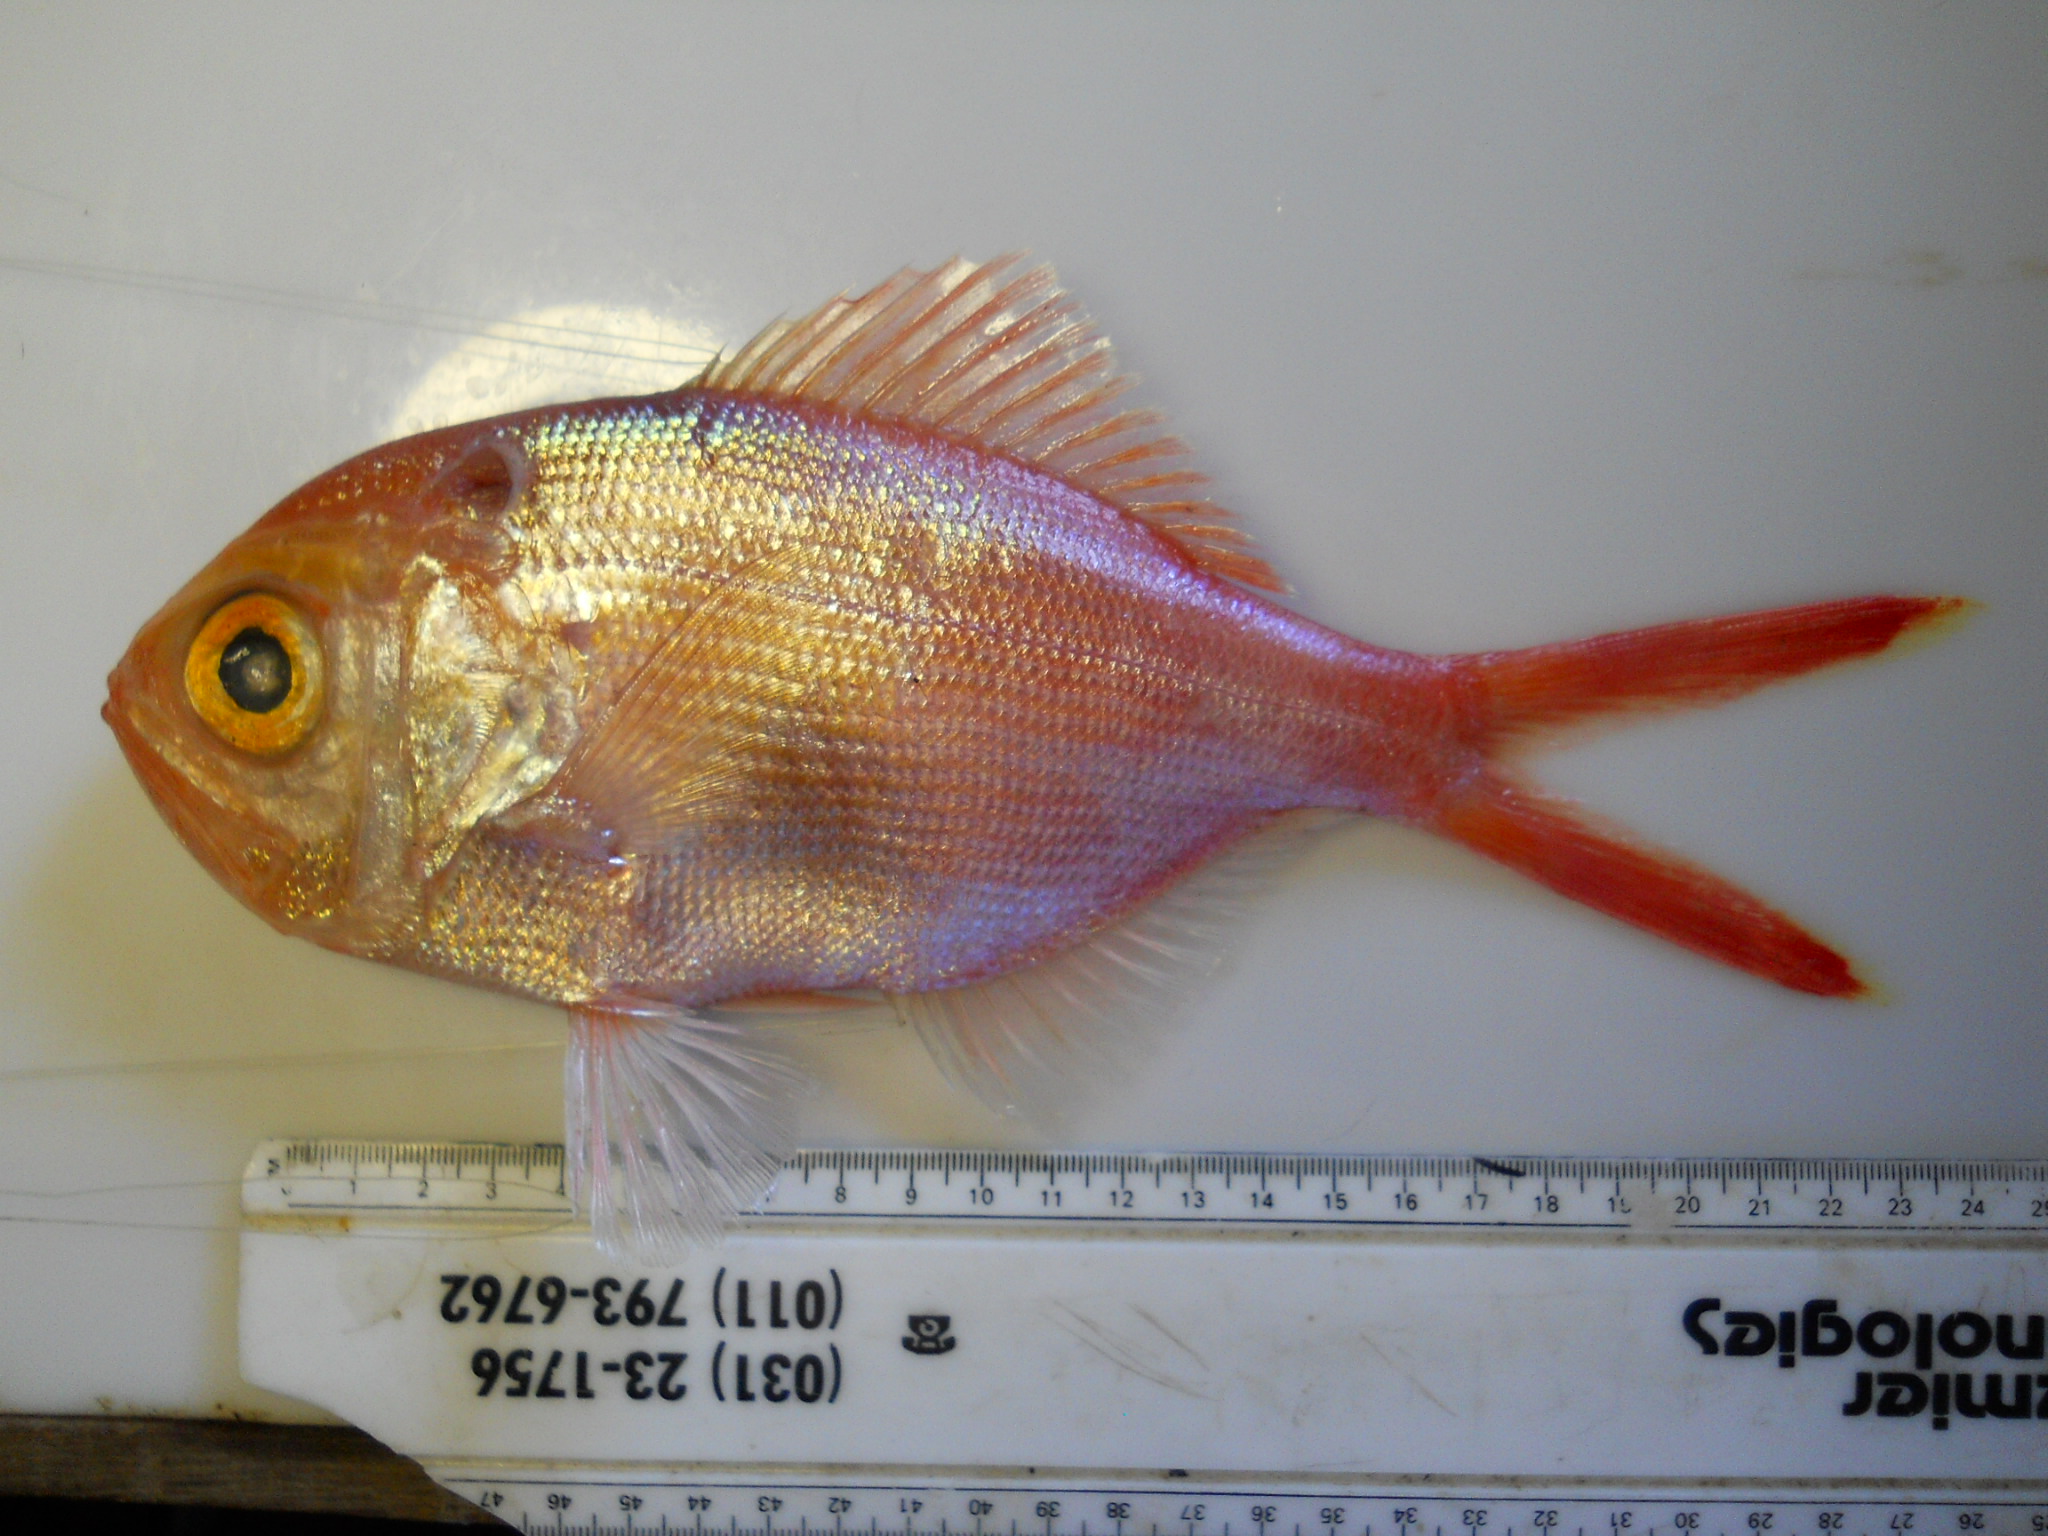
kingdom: Animalia
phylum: Chordata
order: Beryciformes
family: Berycidae
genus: Centroberyx
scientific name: Centroberyx
